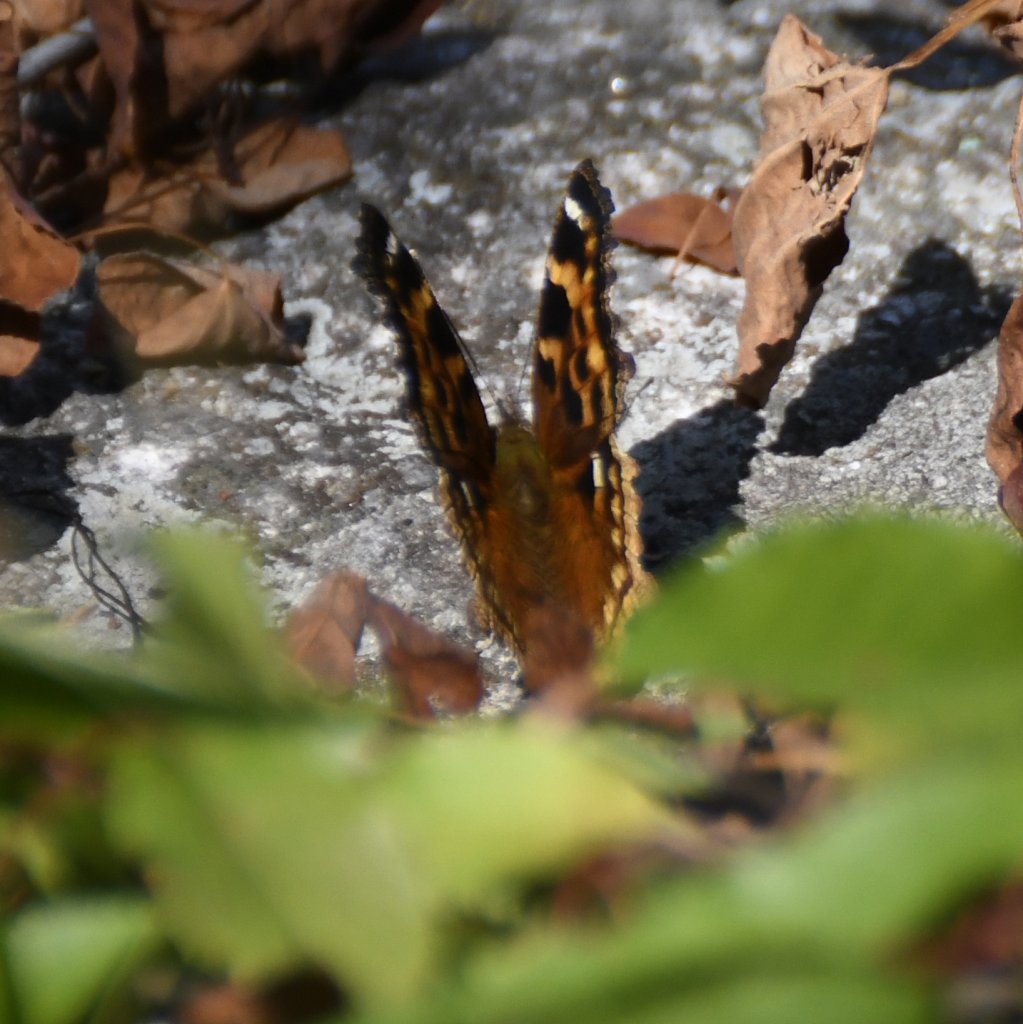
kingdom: Animalia
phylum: Arthropoda
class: Insecta
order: Lepidoptera
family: Nymphalidae
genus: Polygonia
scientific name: Polygonia vaualbum
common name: Compton Tortoiseshell
